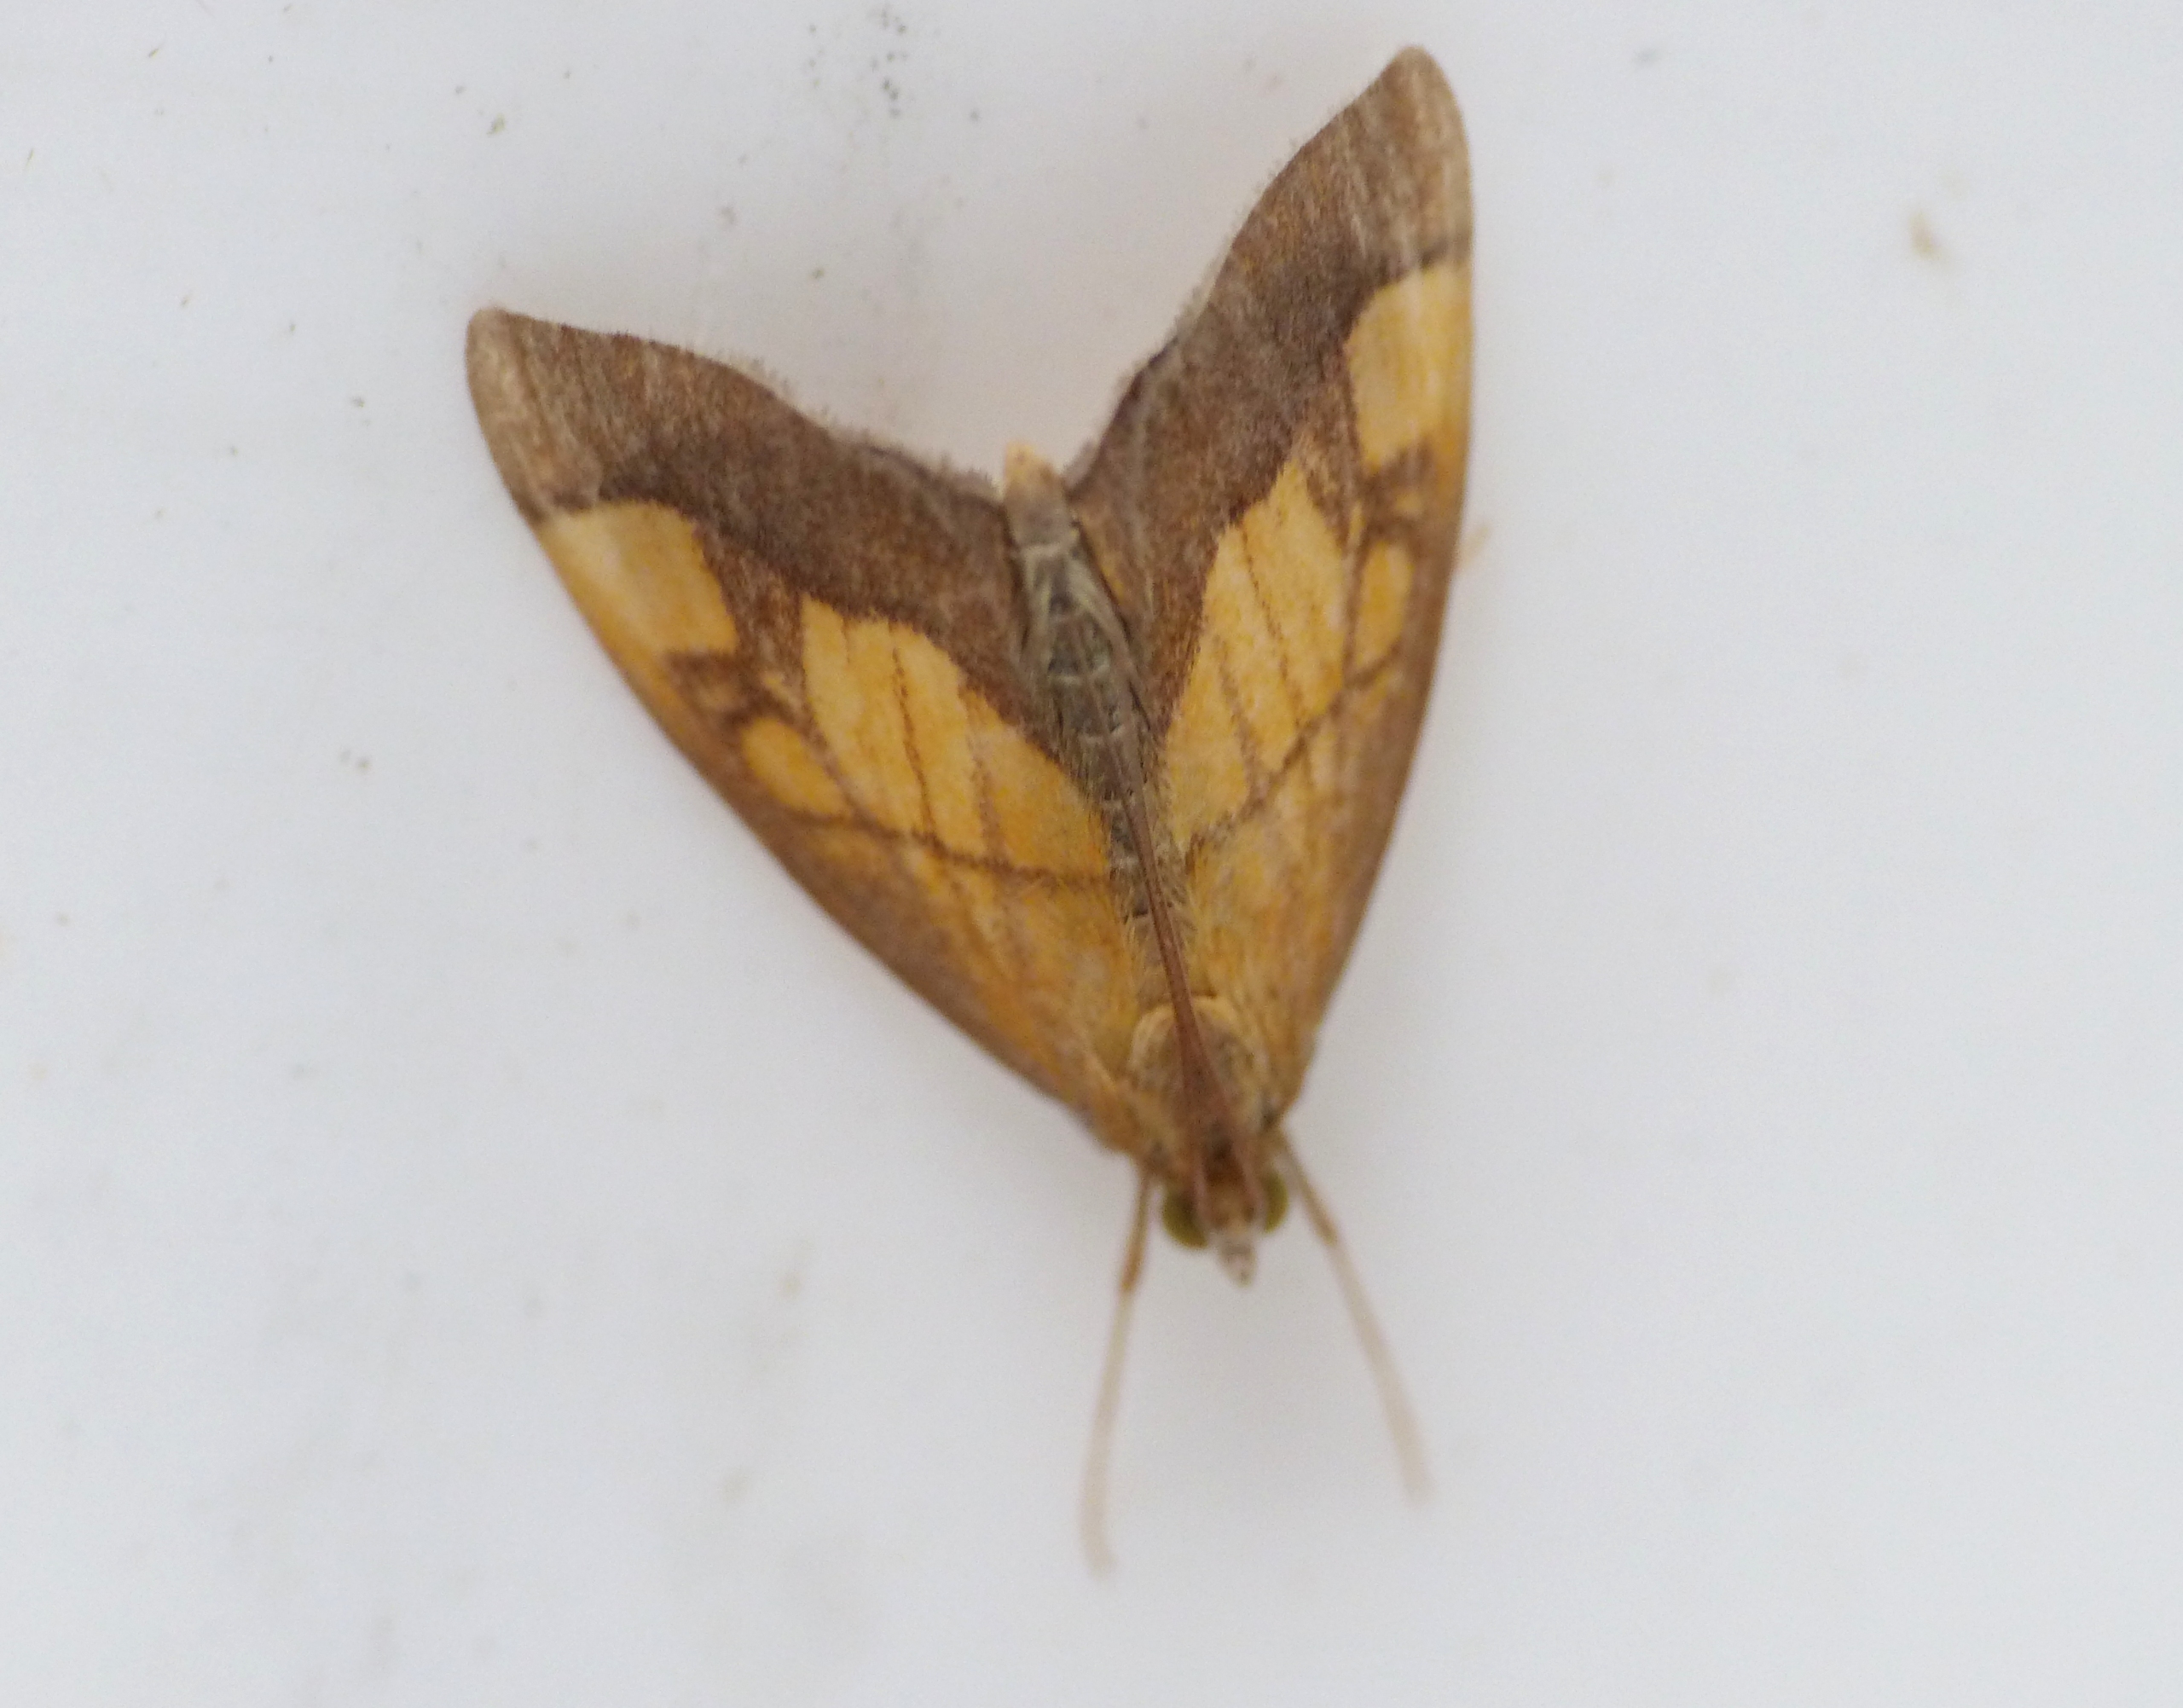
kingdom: Animalia
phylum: Arthropoda
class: Insecta
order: Lepidoptera
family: Crambidae
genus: Evergestis
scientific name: Evergestis limbata
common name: Løgkarsehalvmøl
